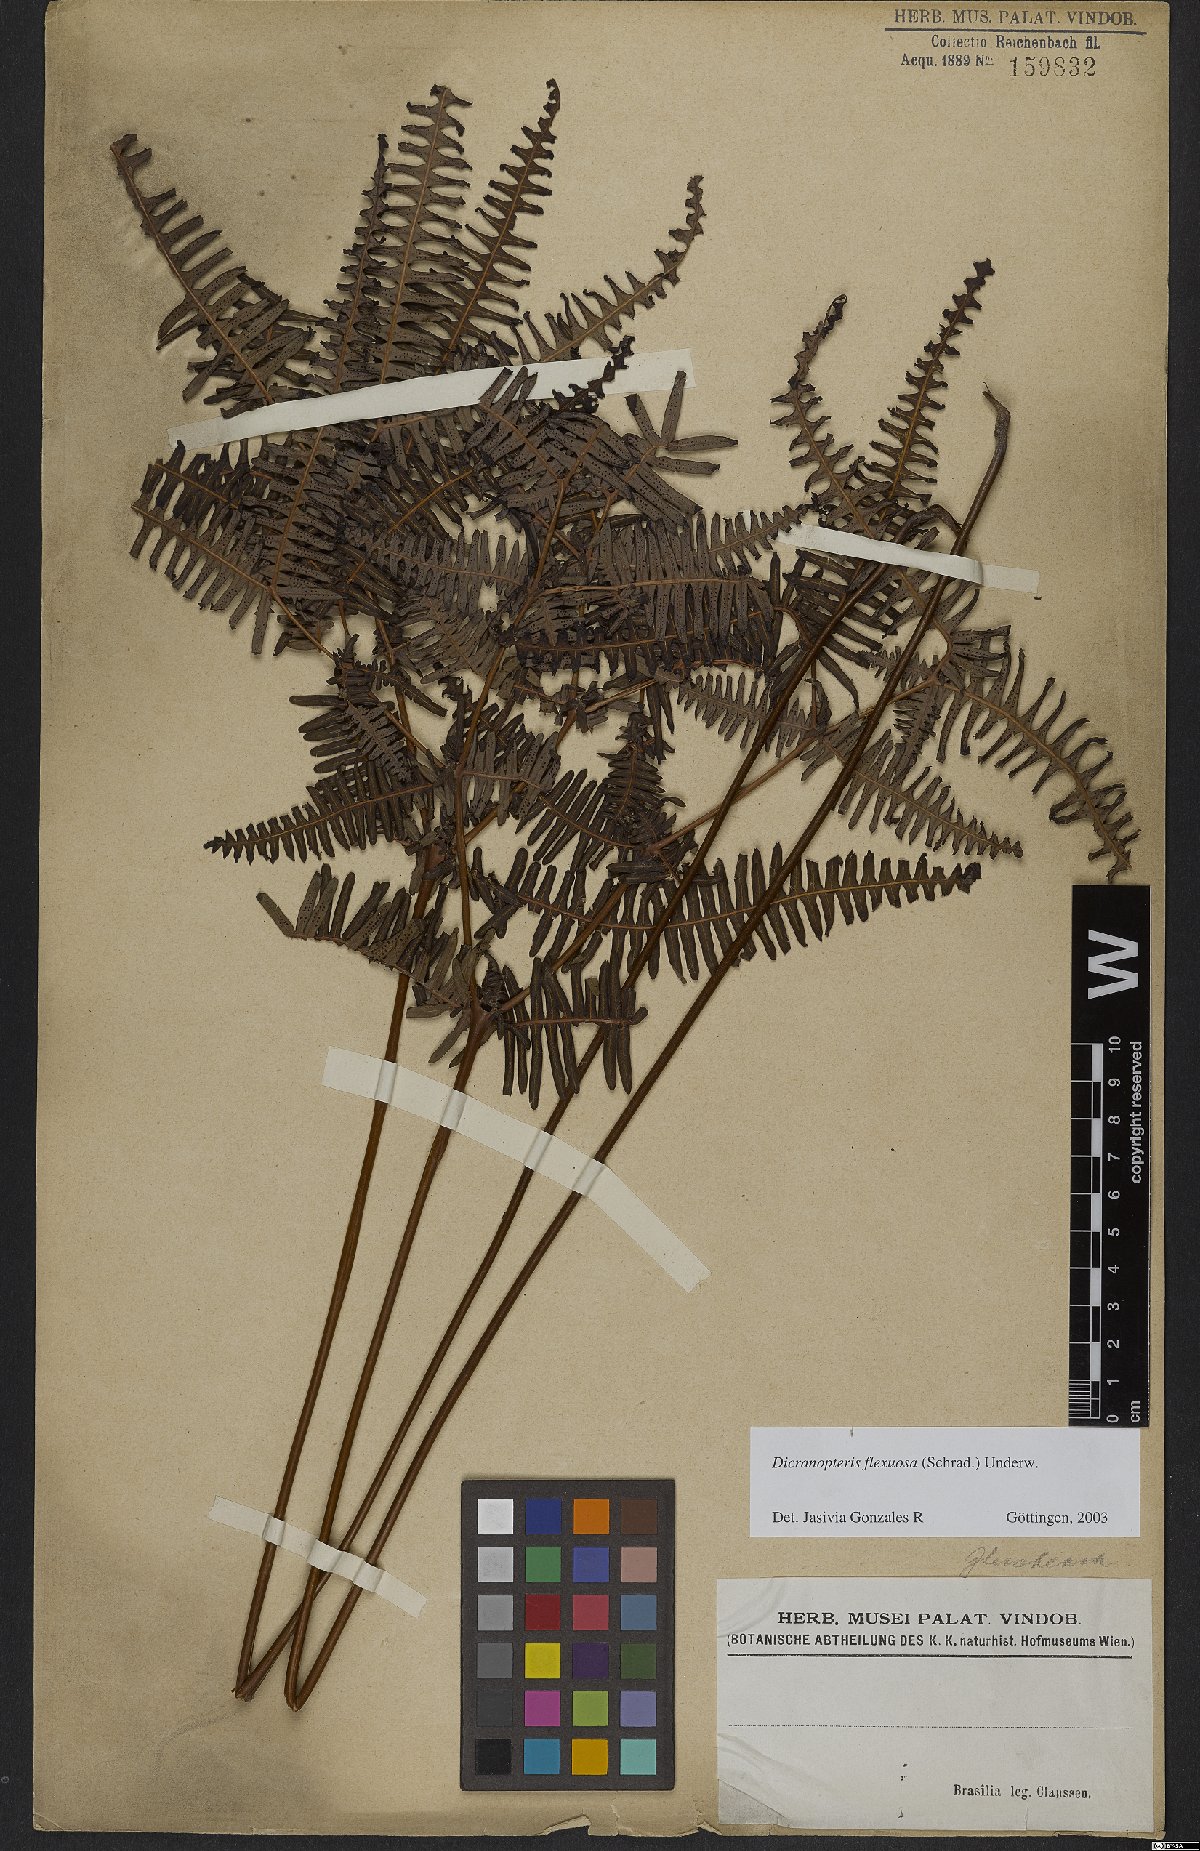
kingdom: Plantae
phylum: Tracheophyta
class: Polypodiopsida
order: Gleicheniales
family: Gleicheniaceae
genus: Dicranopteris
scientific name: Dicranopteris flexuosa
